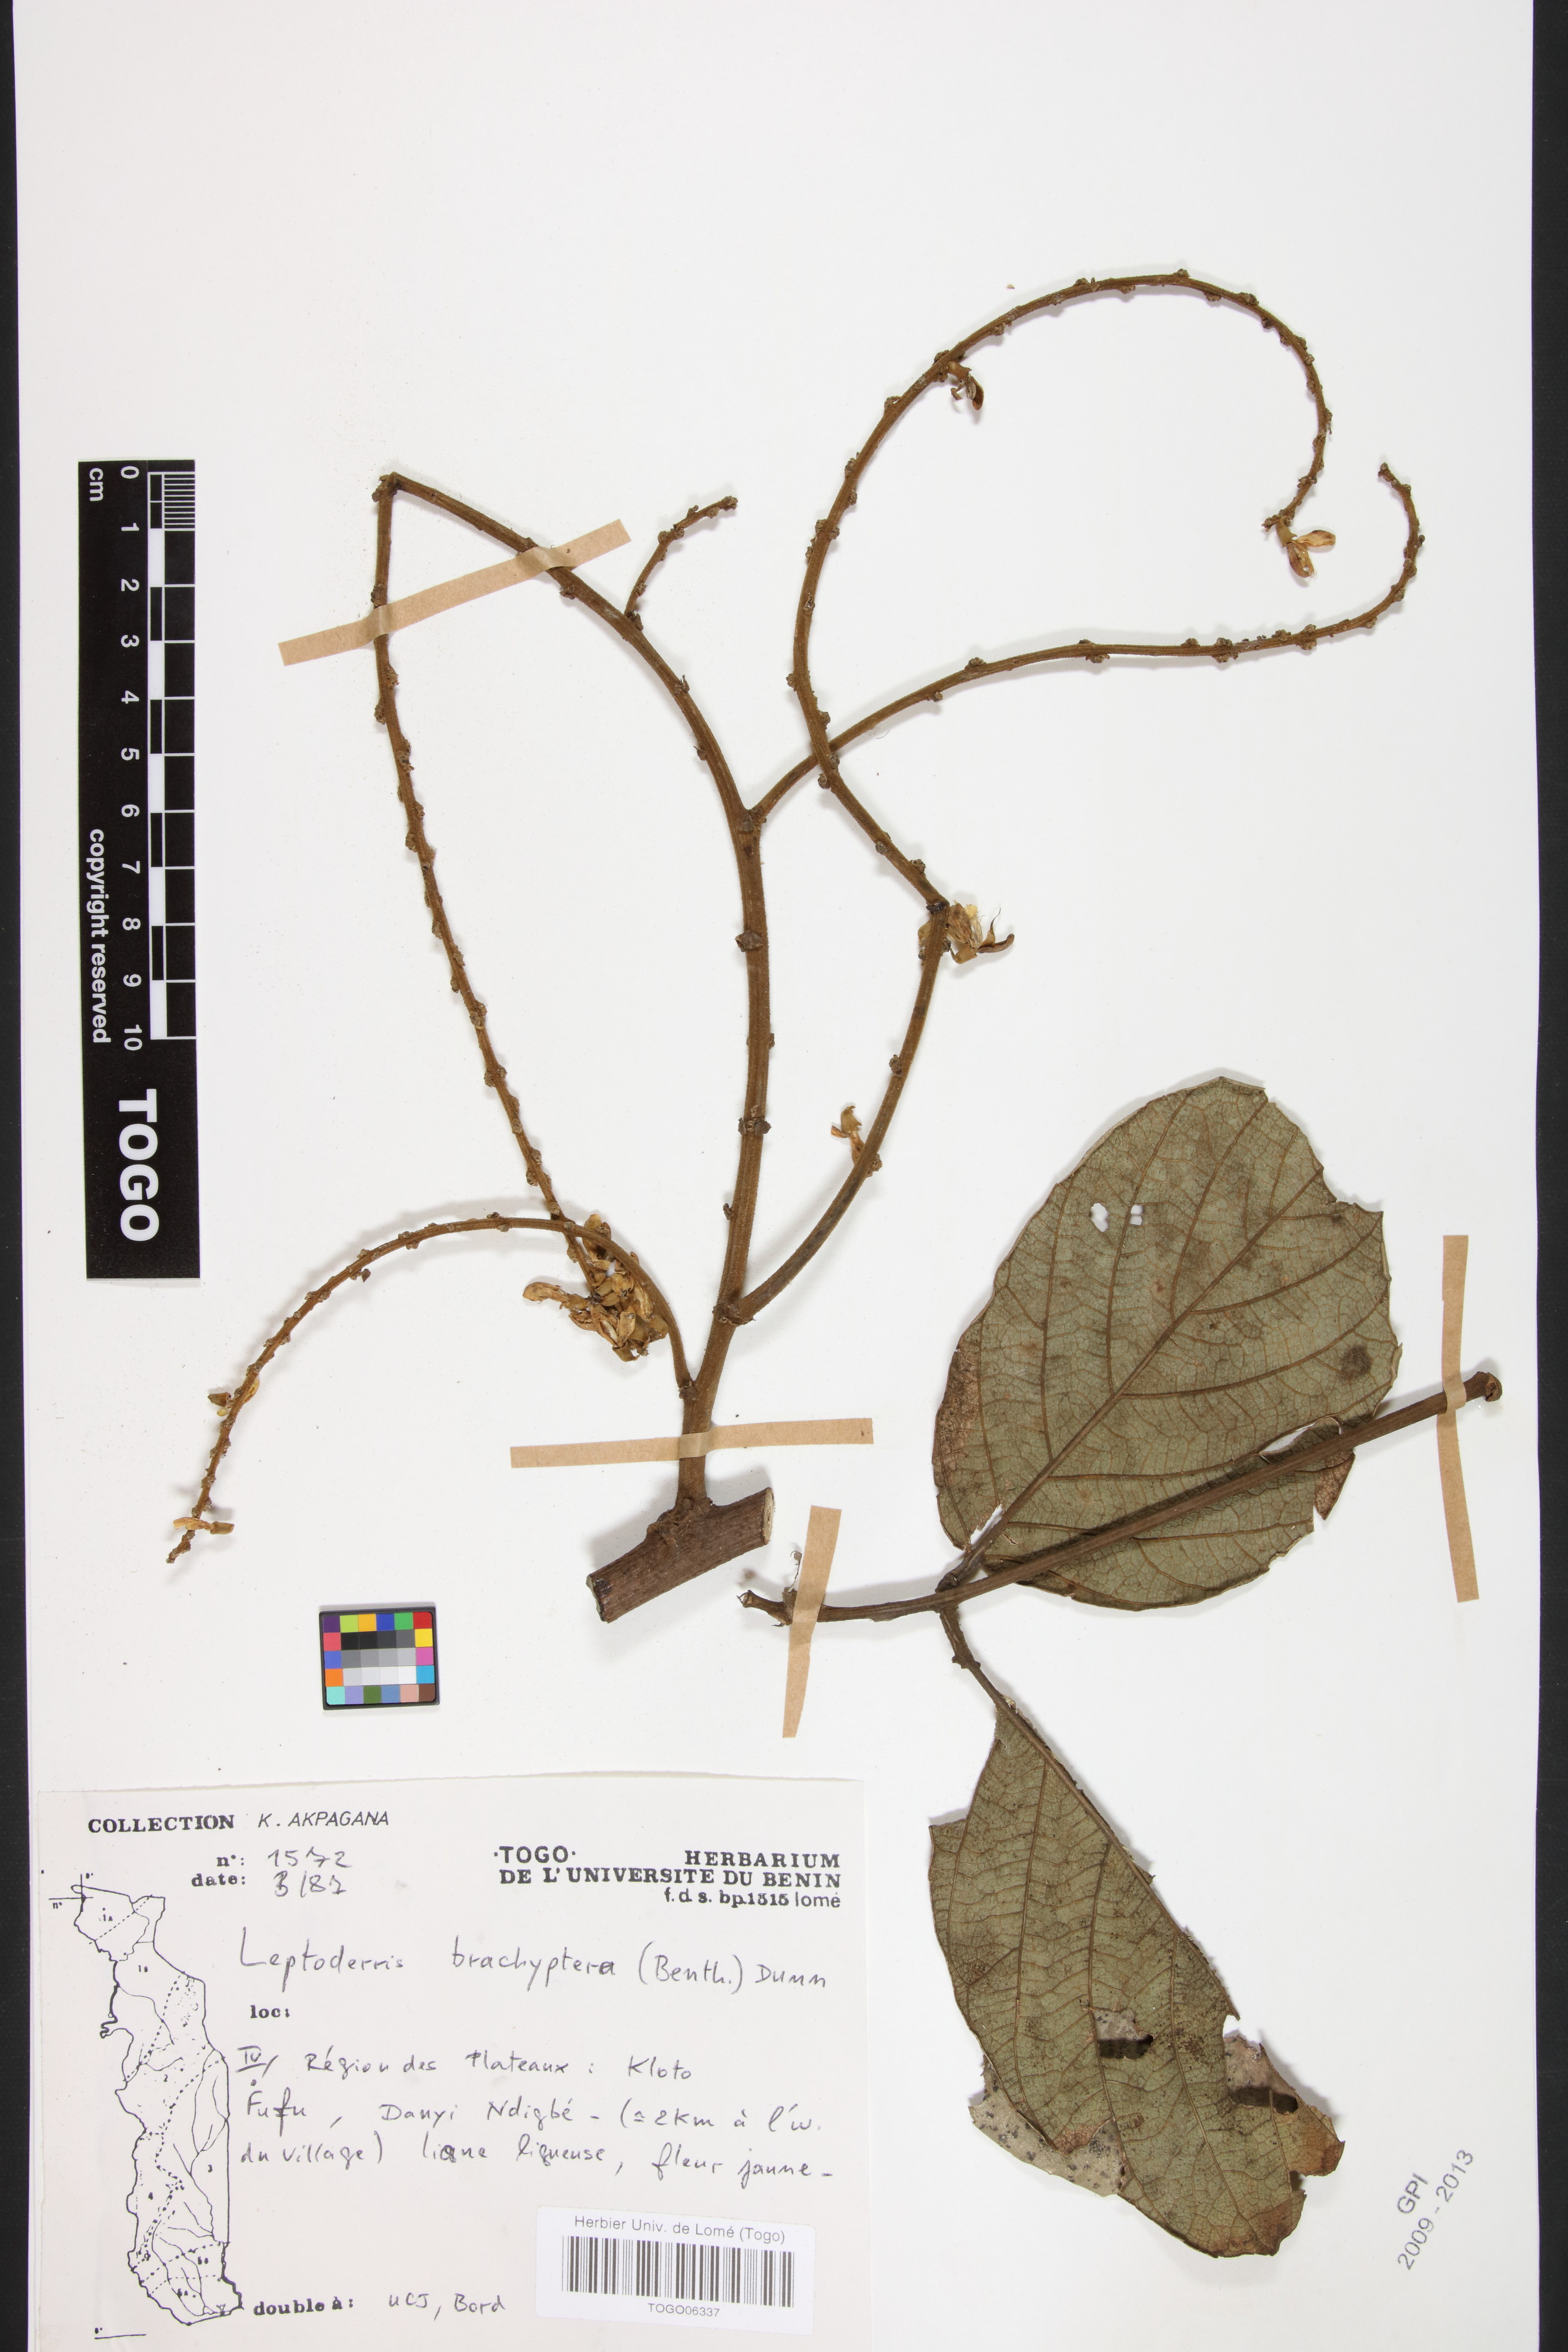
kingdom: Plantae
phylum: Tracheophyta
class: Magnoliopsida
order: Fabales
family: Fabaceae
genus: Leptoderris
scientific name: Leptoderris brachyptera
